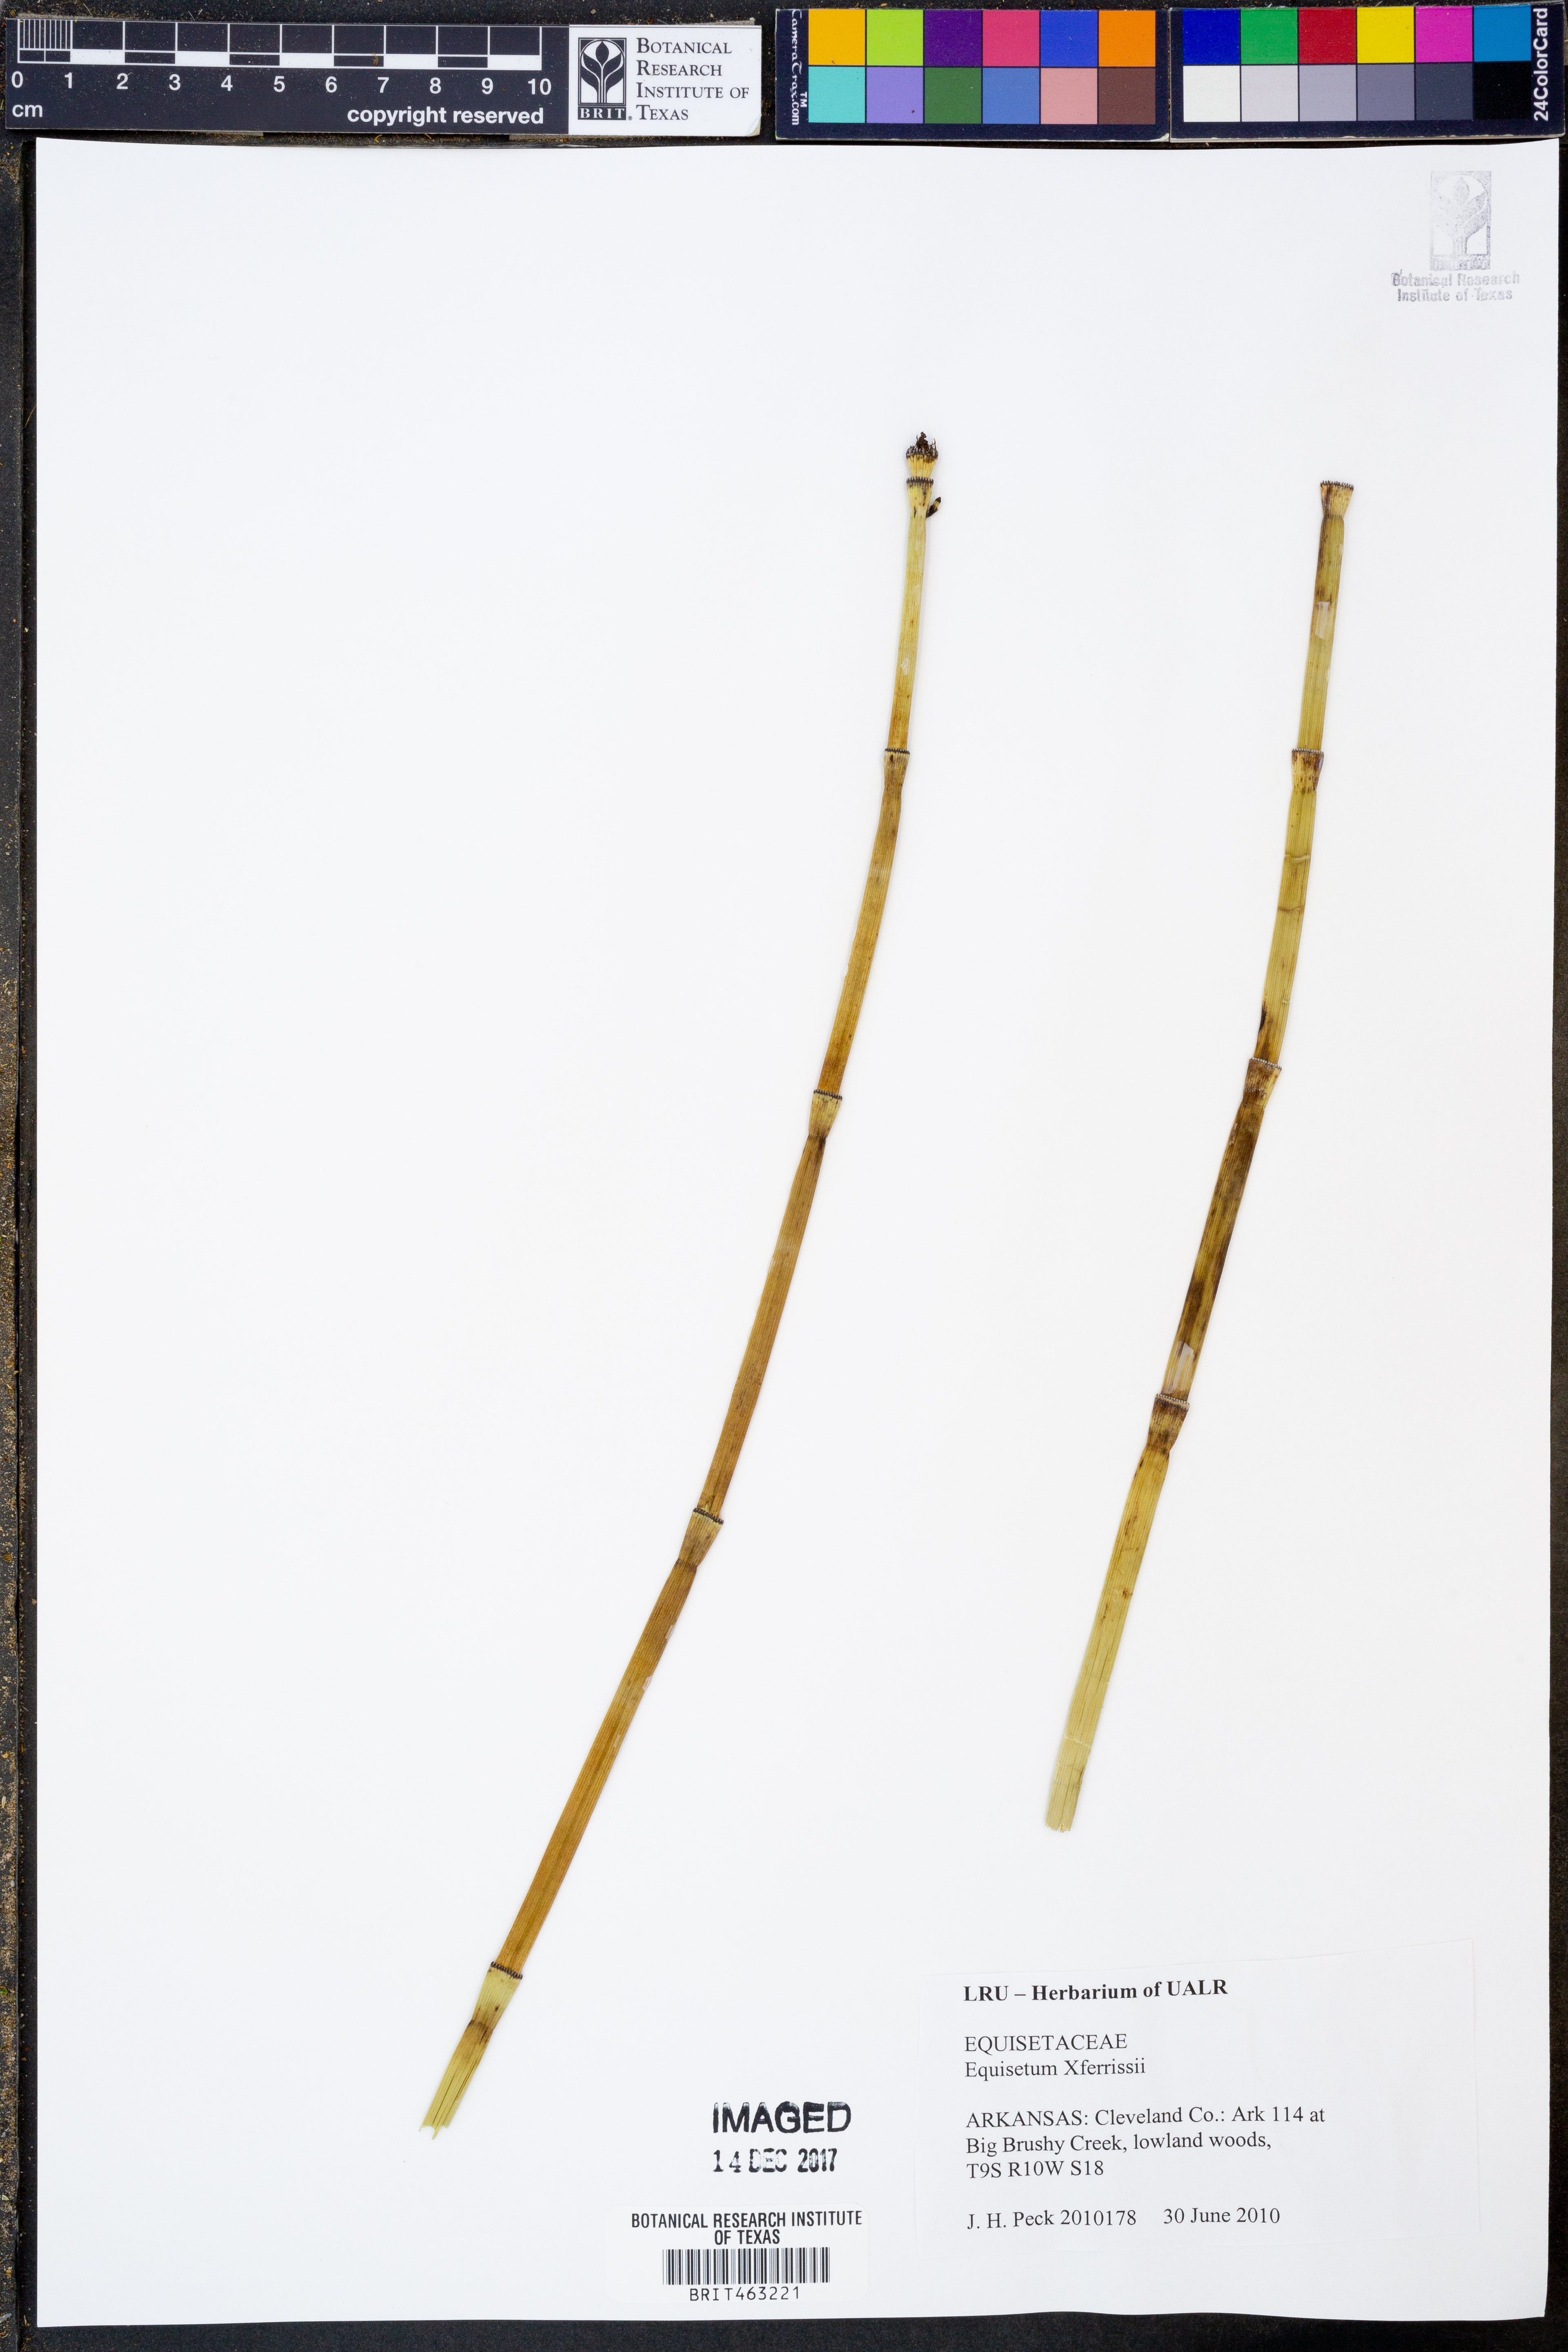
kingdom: Plantae
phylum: Tracheophyta
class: Polypodiopsida
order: Equisetales
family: Equisetaceae
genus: Equisetum
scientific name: Equisetum ferrissii
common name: Ferriss' horsetail
